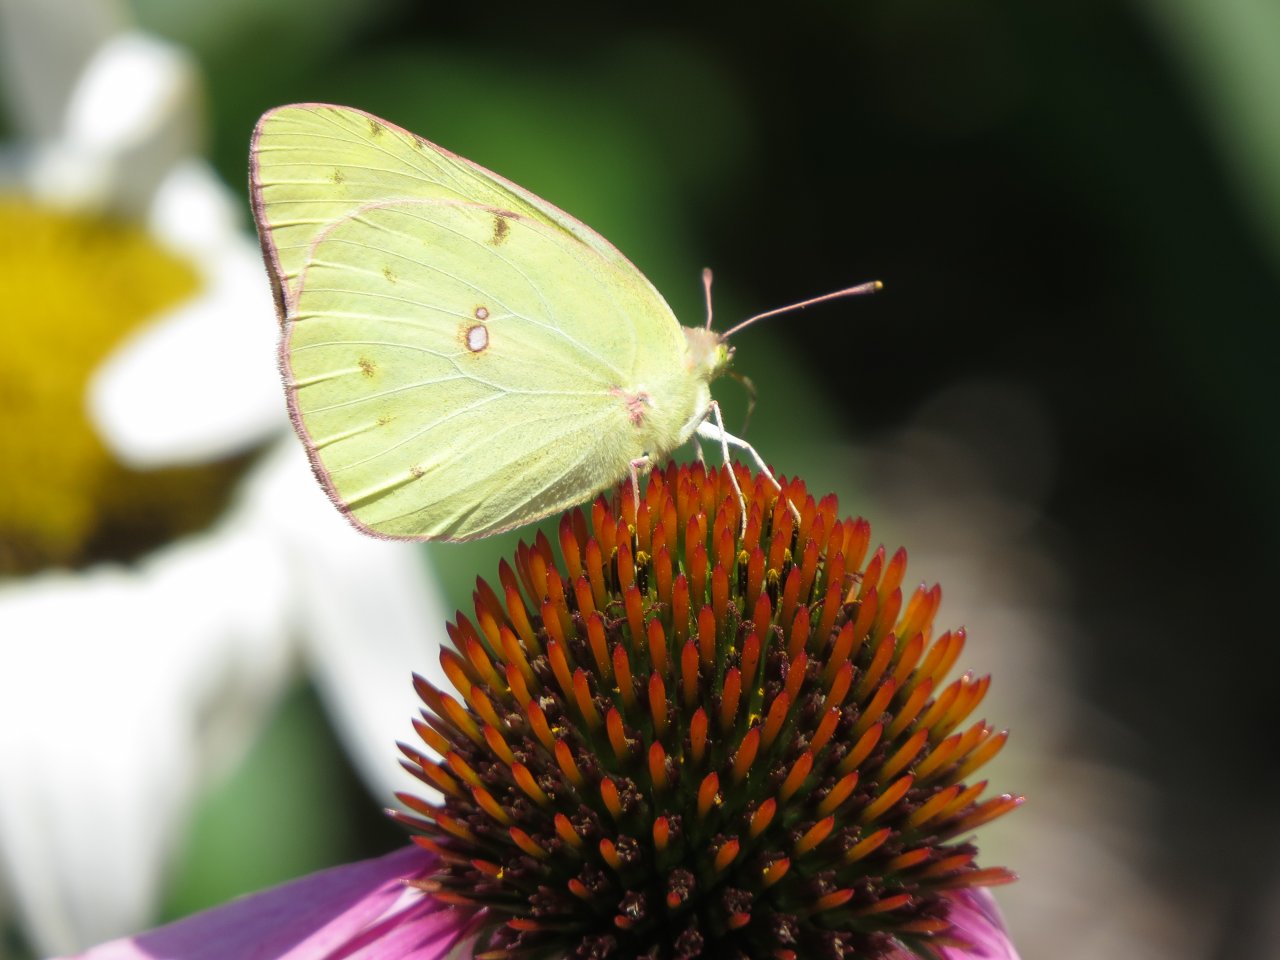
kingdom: Animalia
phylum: Arthropoda
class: Insecta
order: Lepidoptera
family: Pieridae
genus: Phoebis
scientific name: Phoebis sennae
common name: Cloudless Sulphur
